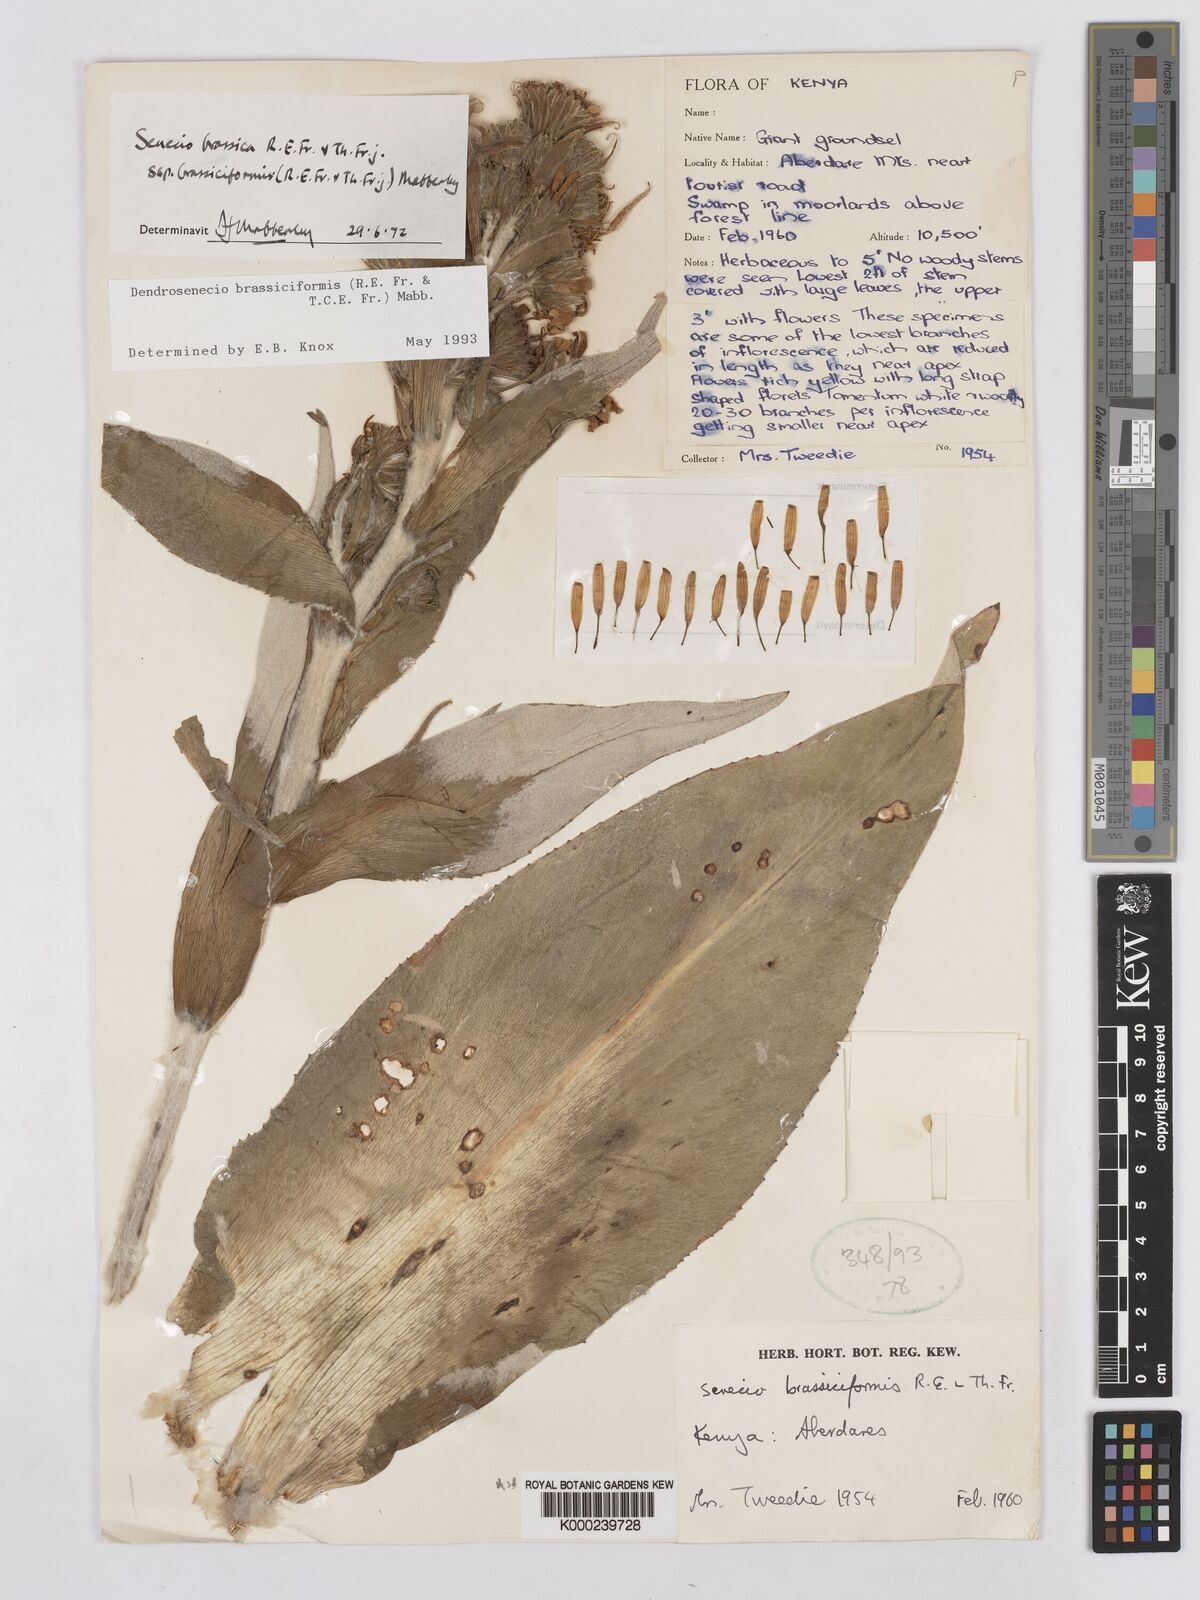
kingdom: Plantae
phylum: Tracheophyta
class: Magnoliopsida
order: Asterales
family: Asteraceae
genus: Dendrosenecio
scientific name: Dendrosenecio brassiciformis
